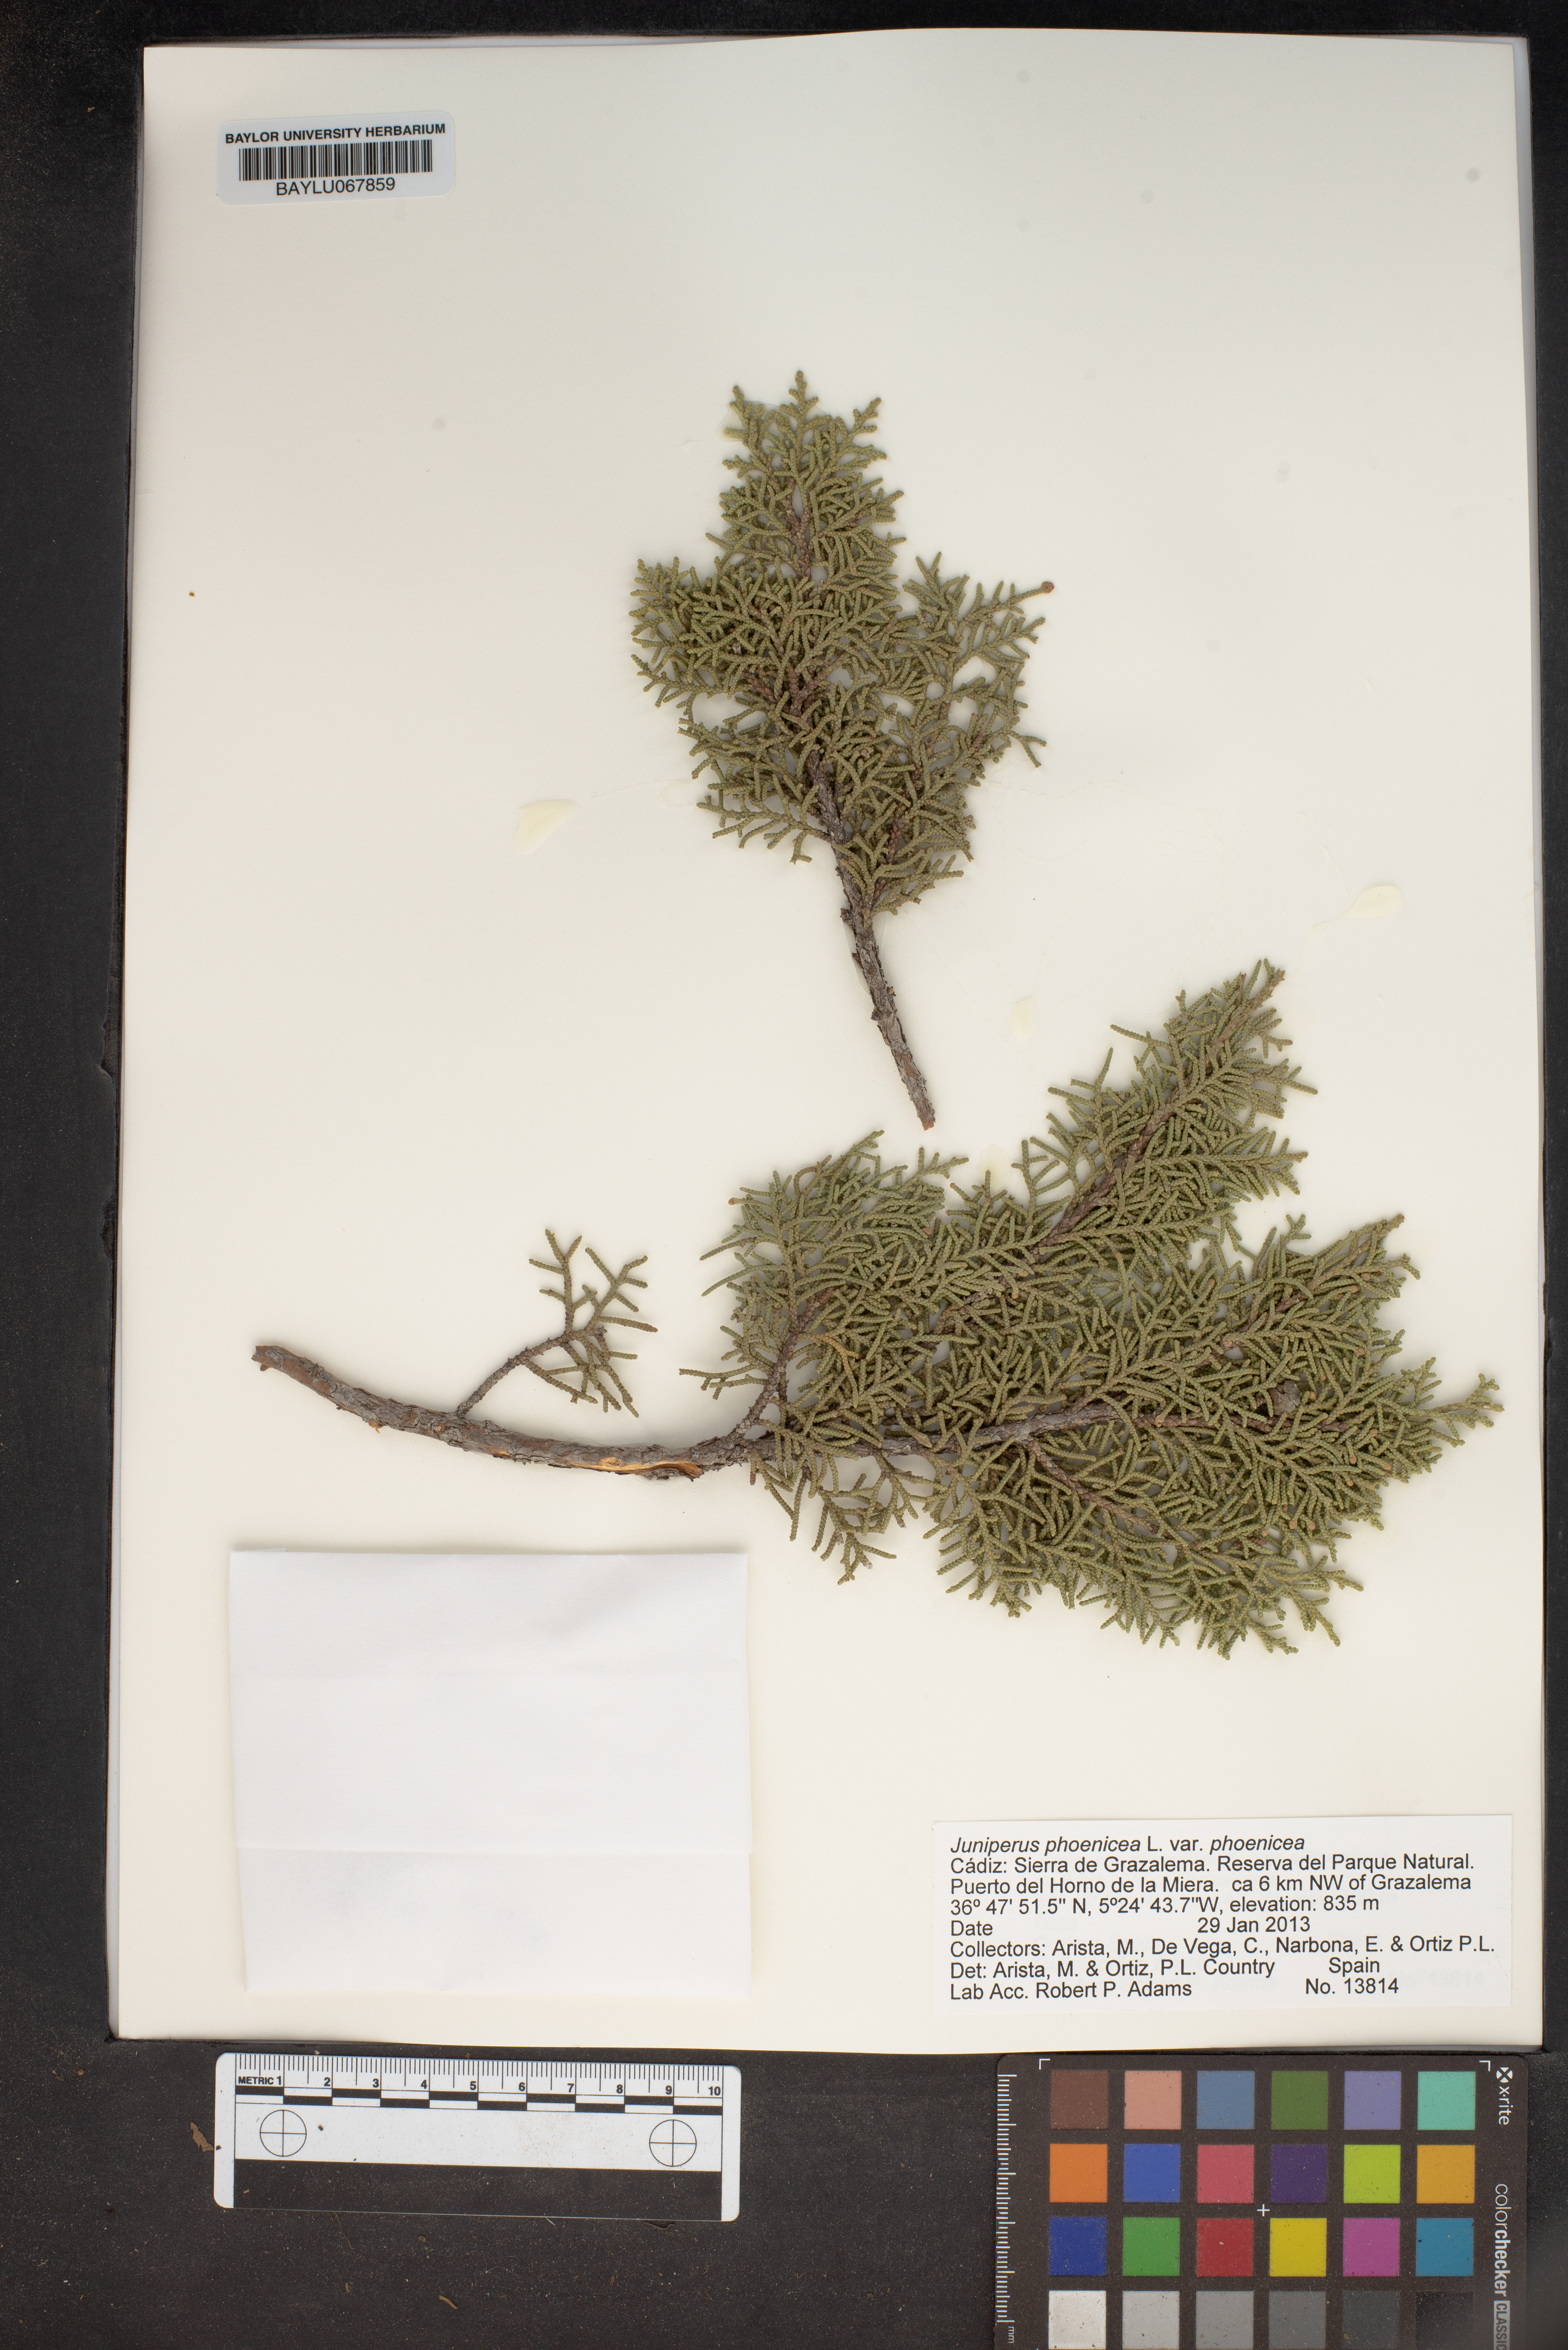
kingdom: Plantae
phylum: Tracheophyta
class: Pinopsida
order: Pinales
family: Cupressaceae
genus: Juniperus
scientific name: Juniperus phoenicea
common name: Phoenician juniper
